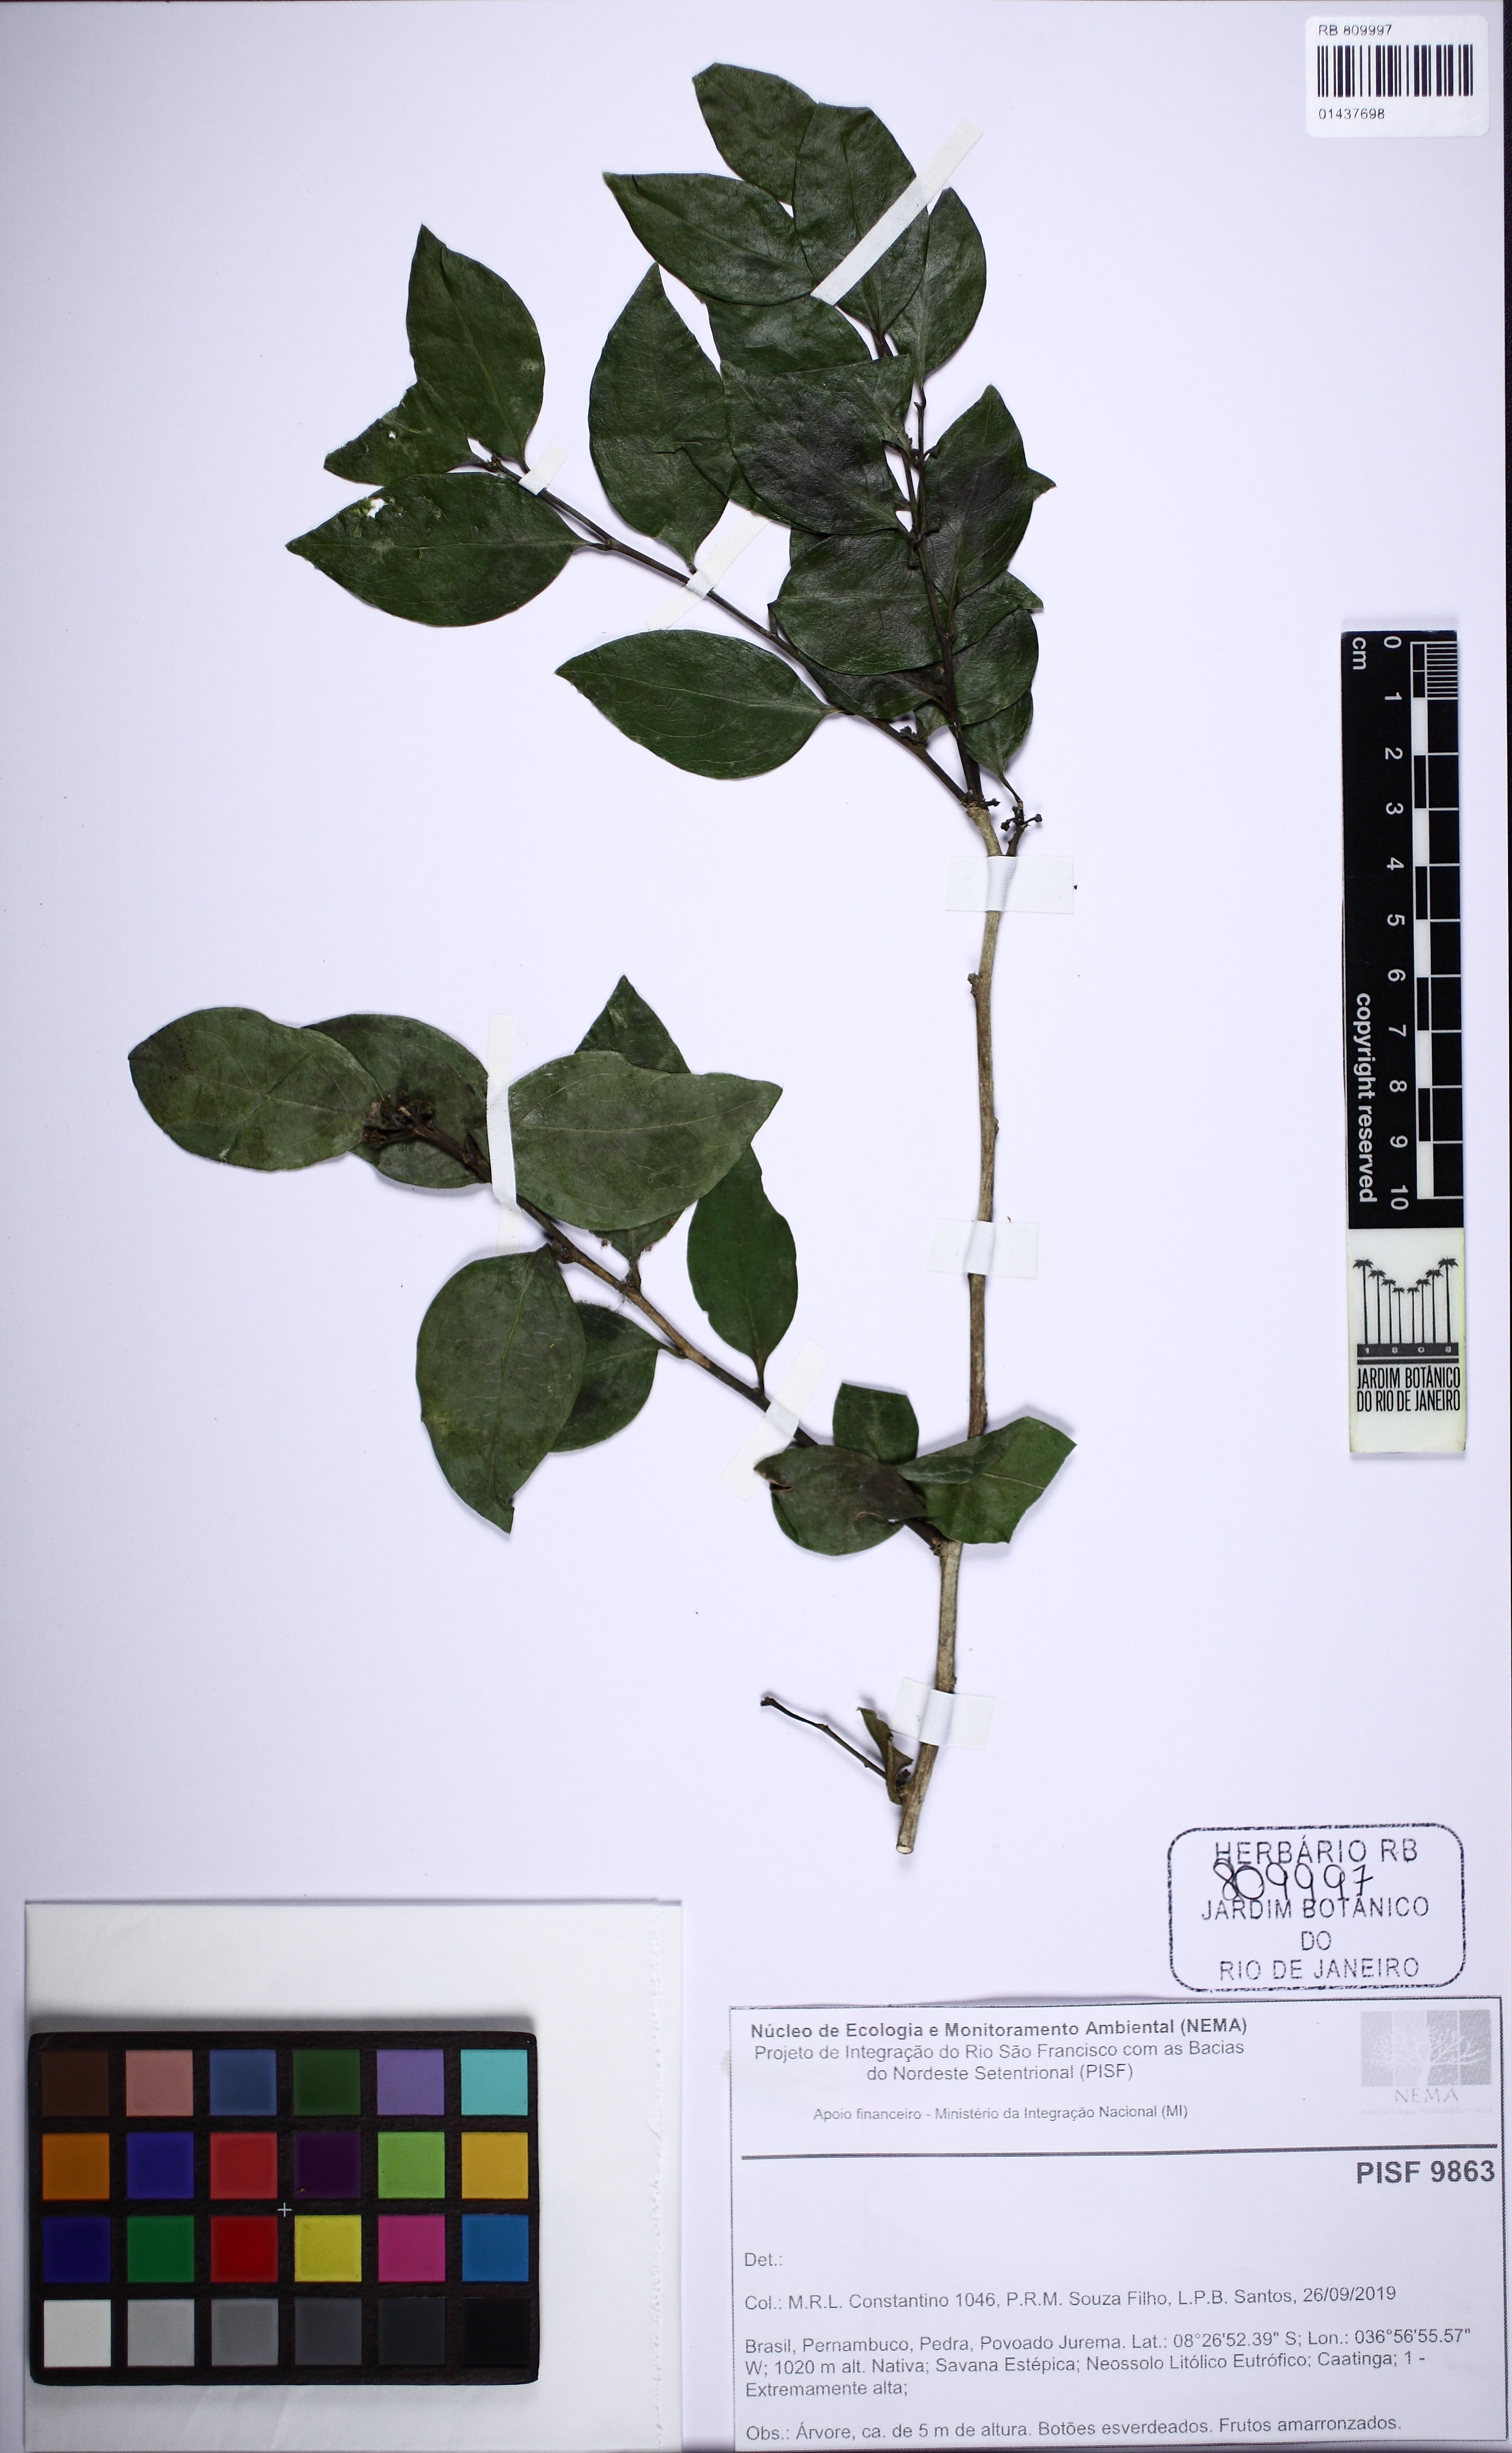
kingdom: Plantae
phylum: Tracheophyta
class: Magnoliopsida
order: Santalales
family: Schoepfiaceae
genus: Schoepfia
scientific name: Schoepfia brasiliensis
